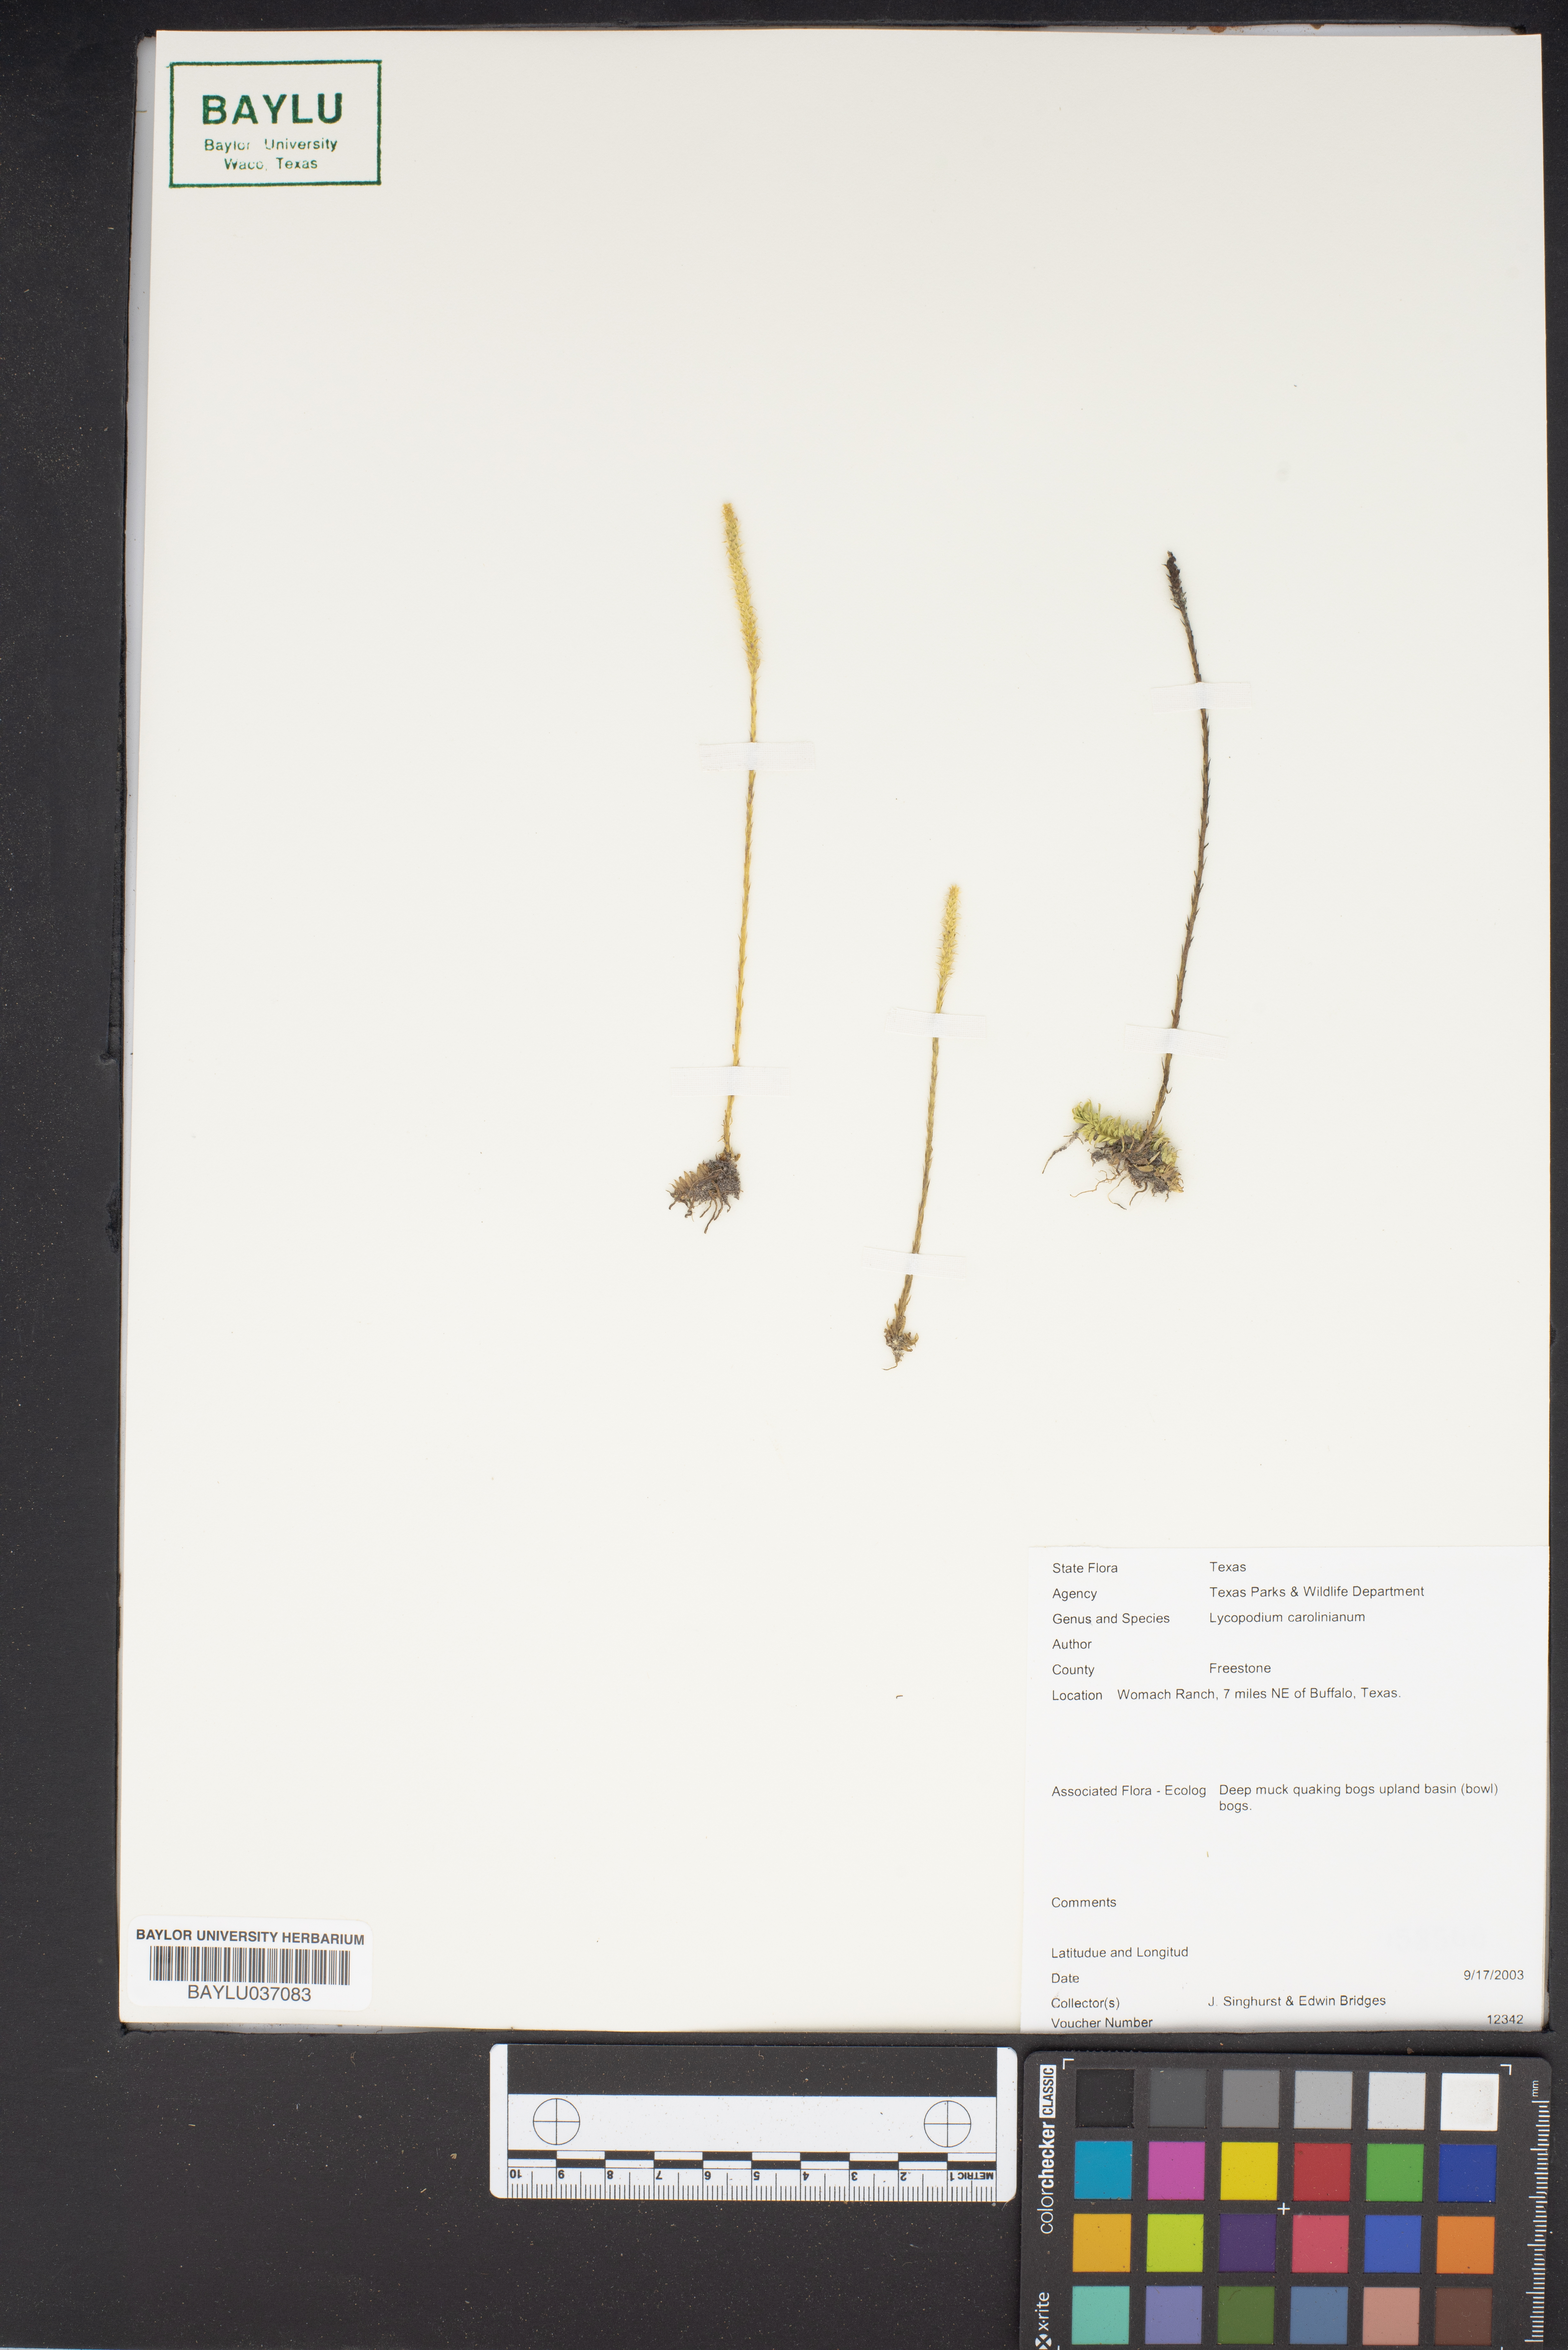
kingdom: Plantae
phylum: Tracheophyta
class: Lycopodiopsida
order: Lycopodiales
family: Lycopodiaceae
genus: Pseudolycopodiella
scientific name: Pseudolycopodiella caroliniana
